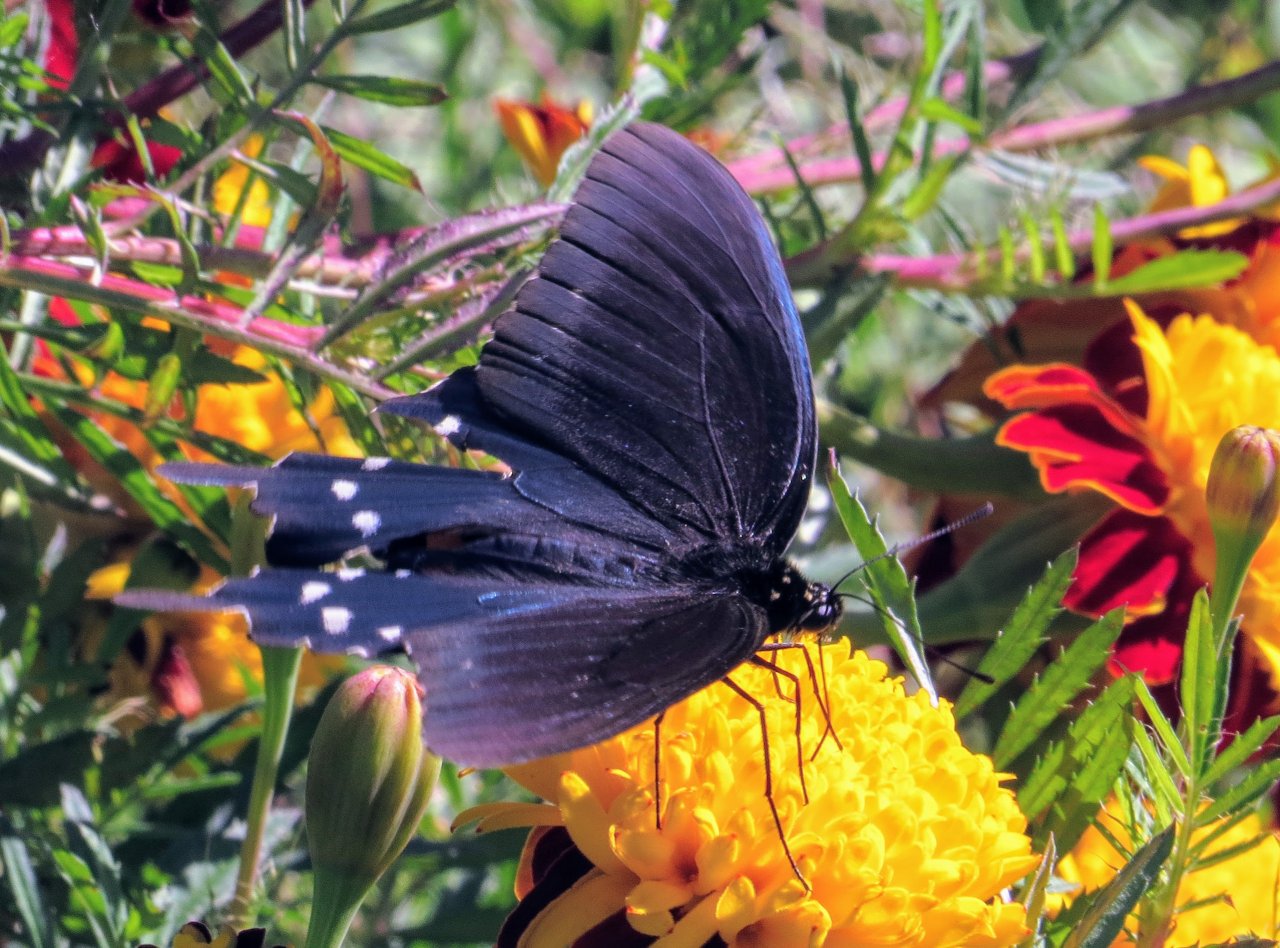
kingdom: Animalia
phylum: Arthropoda
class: Insecta
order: Lepidoptera
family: Papilionidae
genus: Battus
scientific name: Battus philenor
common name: Pipevine Swallowtail
